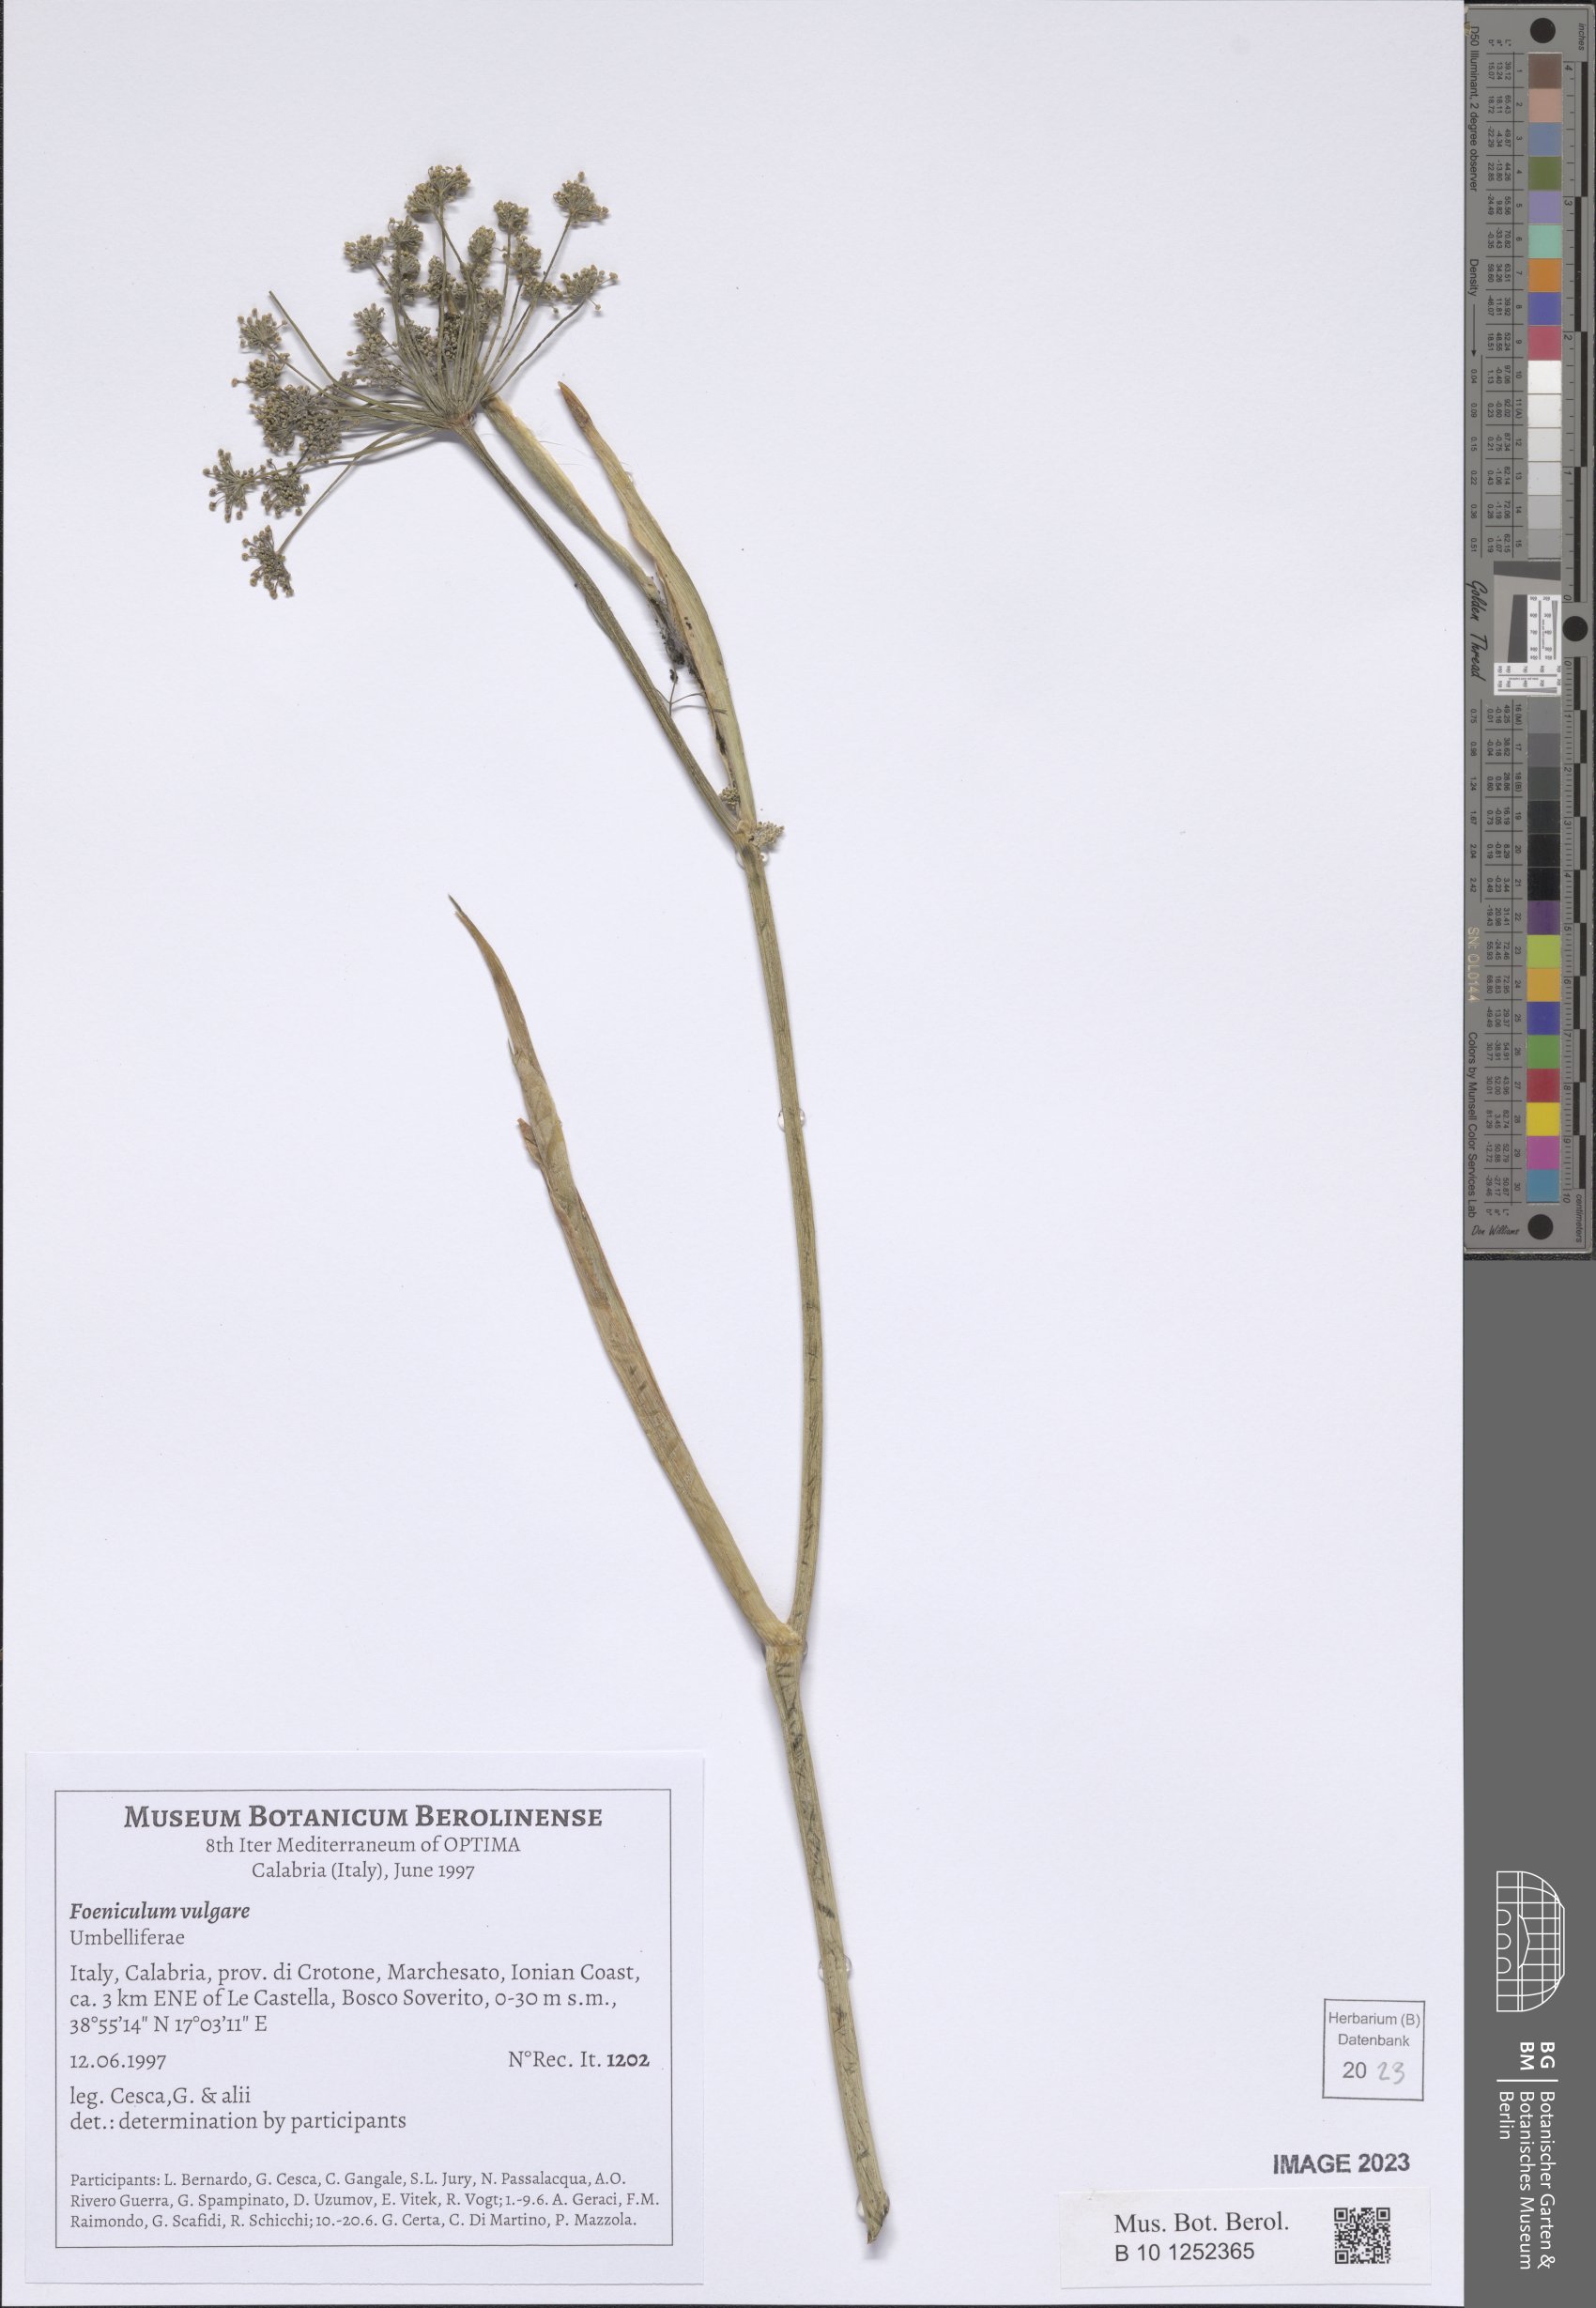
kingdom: Plantae
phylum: Tracheophyta
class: Magnoliopsida
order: Apiales
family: Apiaceae
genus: Foeniculum
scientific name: Foeniculum vulgare
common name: Fennel
